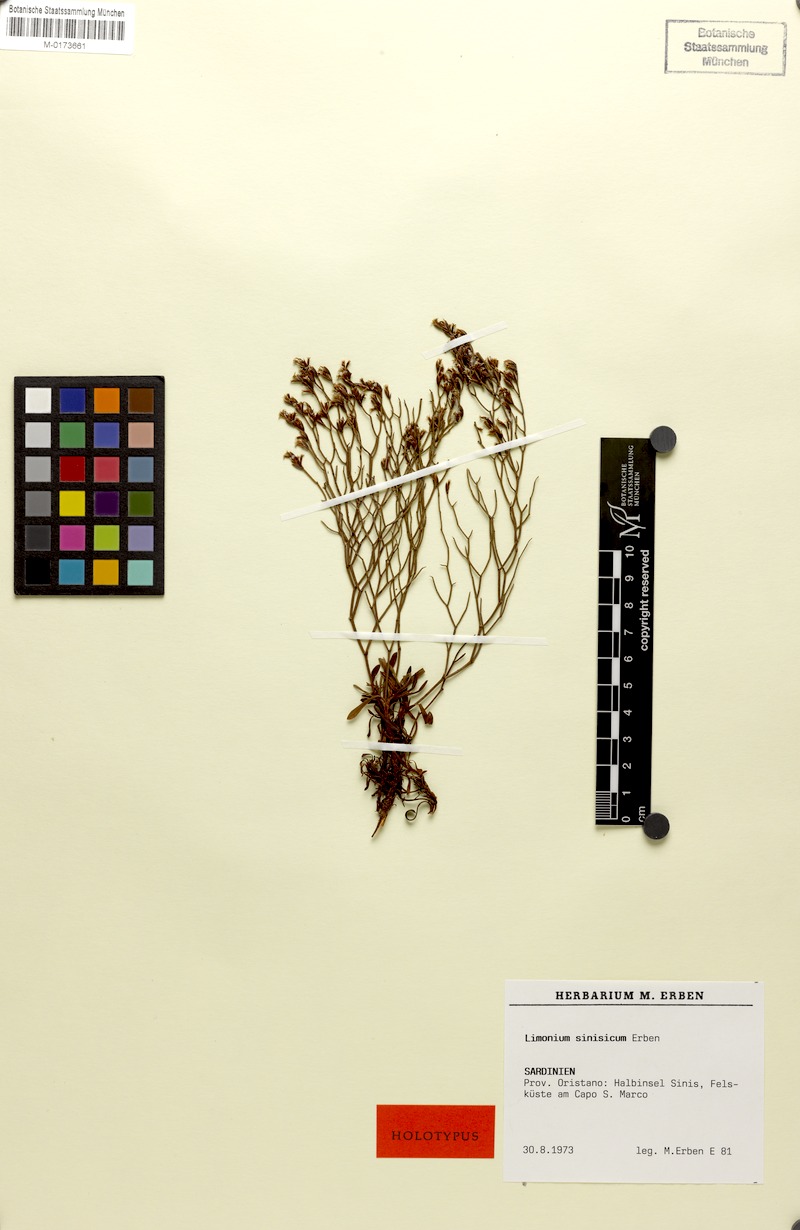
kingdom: Plantae
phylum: Tracheophyta
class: Magnoliopsida
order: Caryophyllales
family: Plumbaginaceae
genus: Limonium
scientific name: Limonium acutifolium
